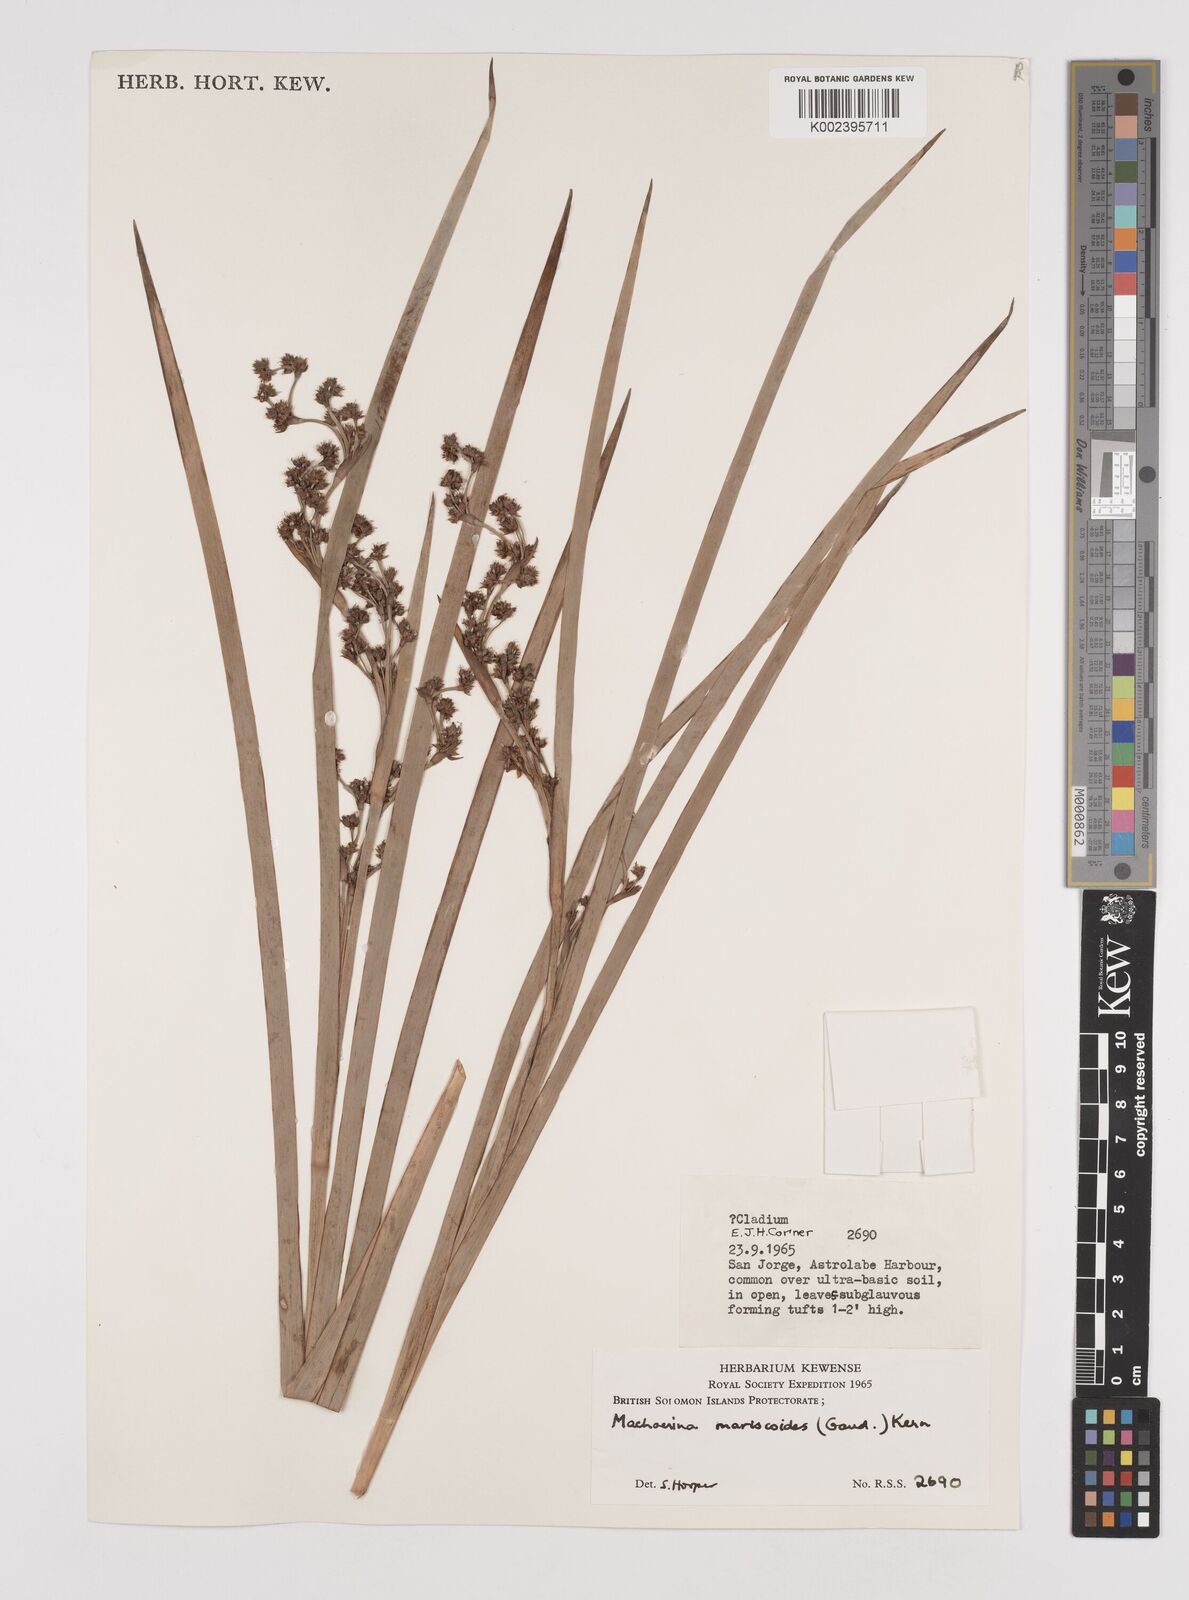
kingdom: Plantae
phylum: Tracheophyta
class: Liliopsida
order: Poales
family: Cyperaceae
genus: Machaerina
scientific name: Machaerina mariscoides
